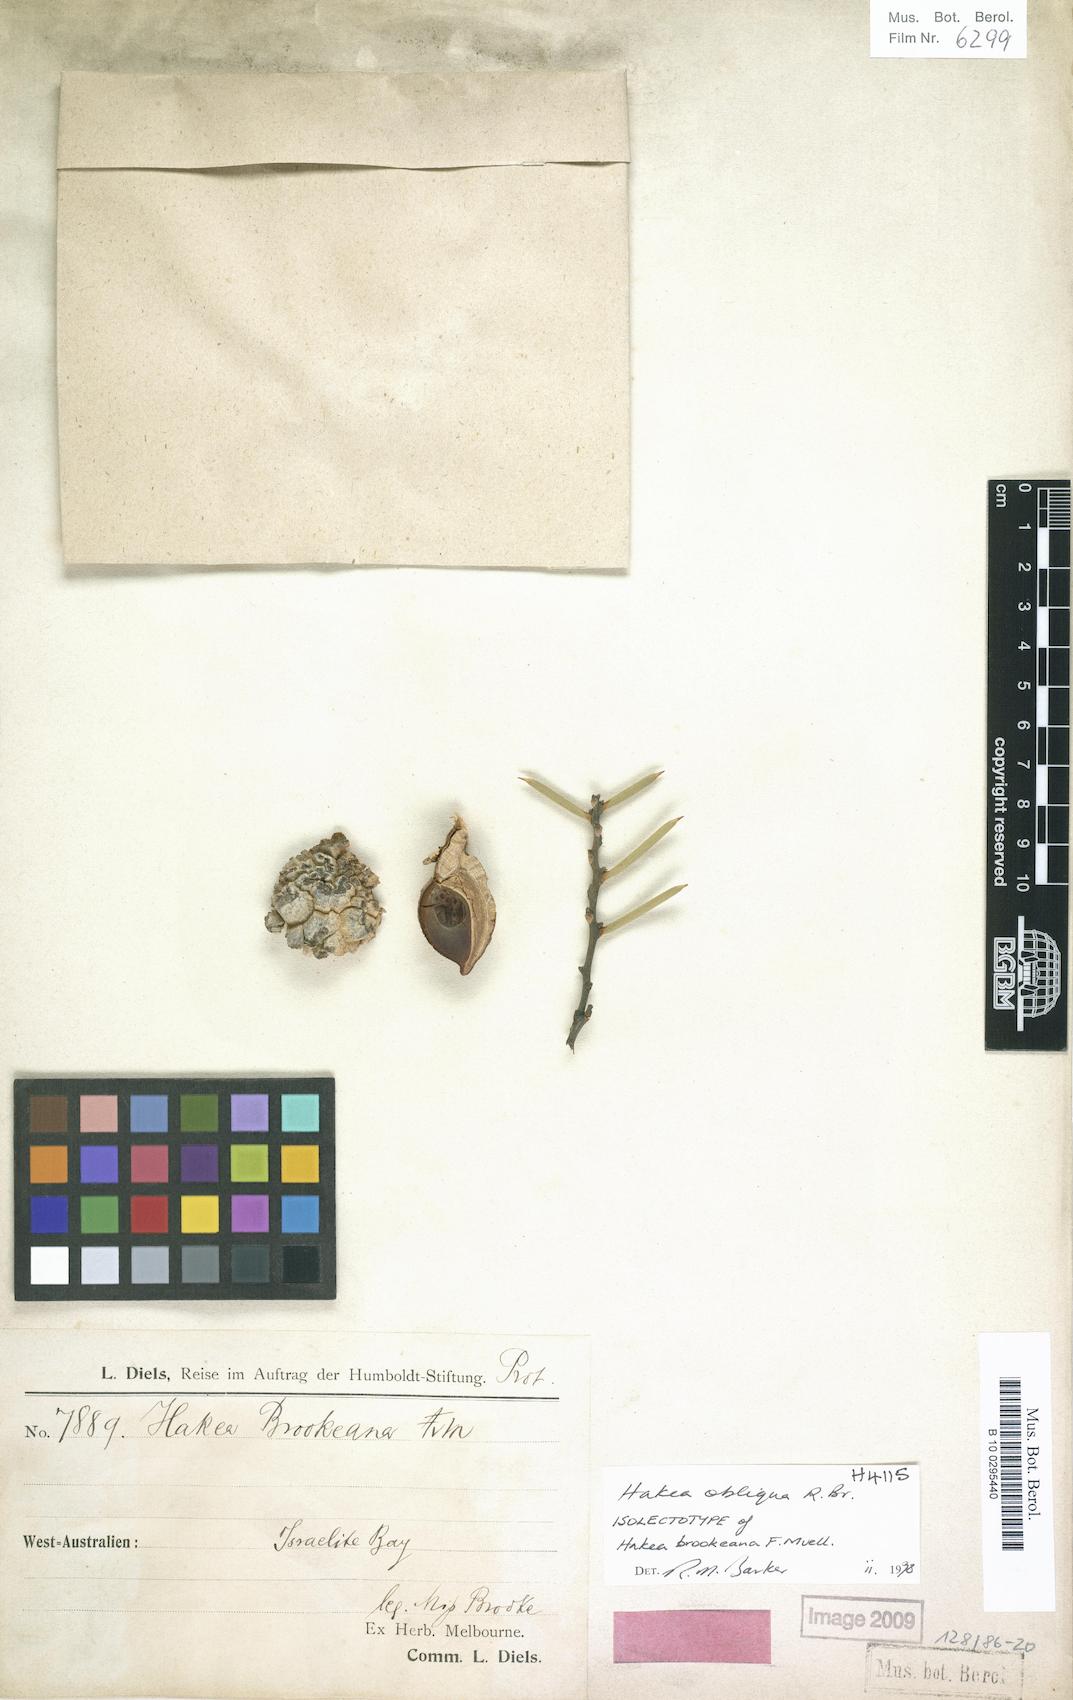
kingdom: Plantae
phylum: Tracheophyta
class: Magnoliopsida
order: Proteales
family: Proteaceae
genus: Hakea
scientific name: Hakea obliqua
